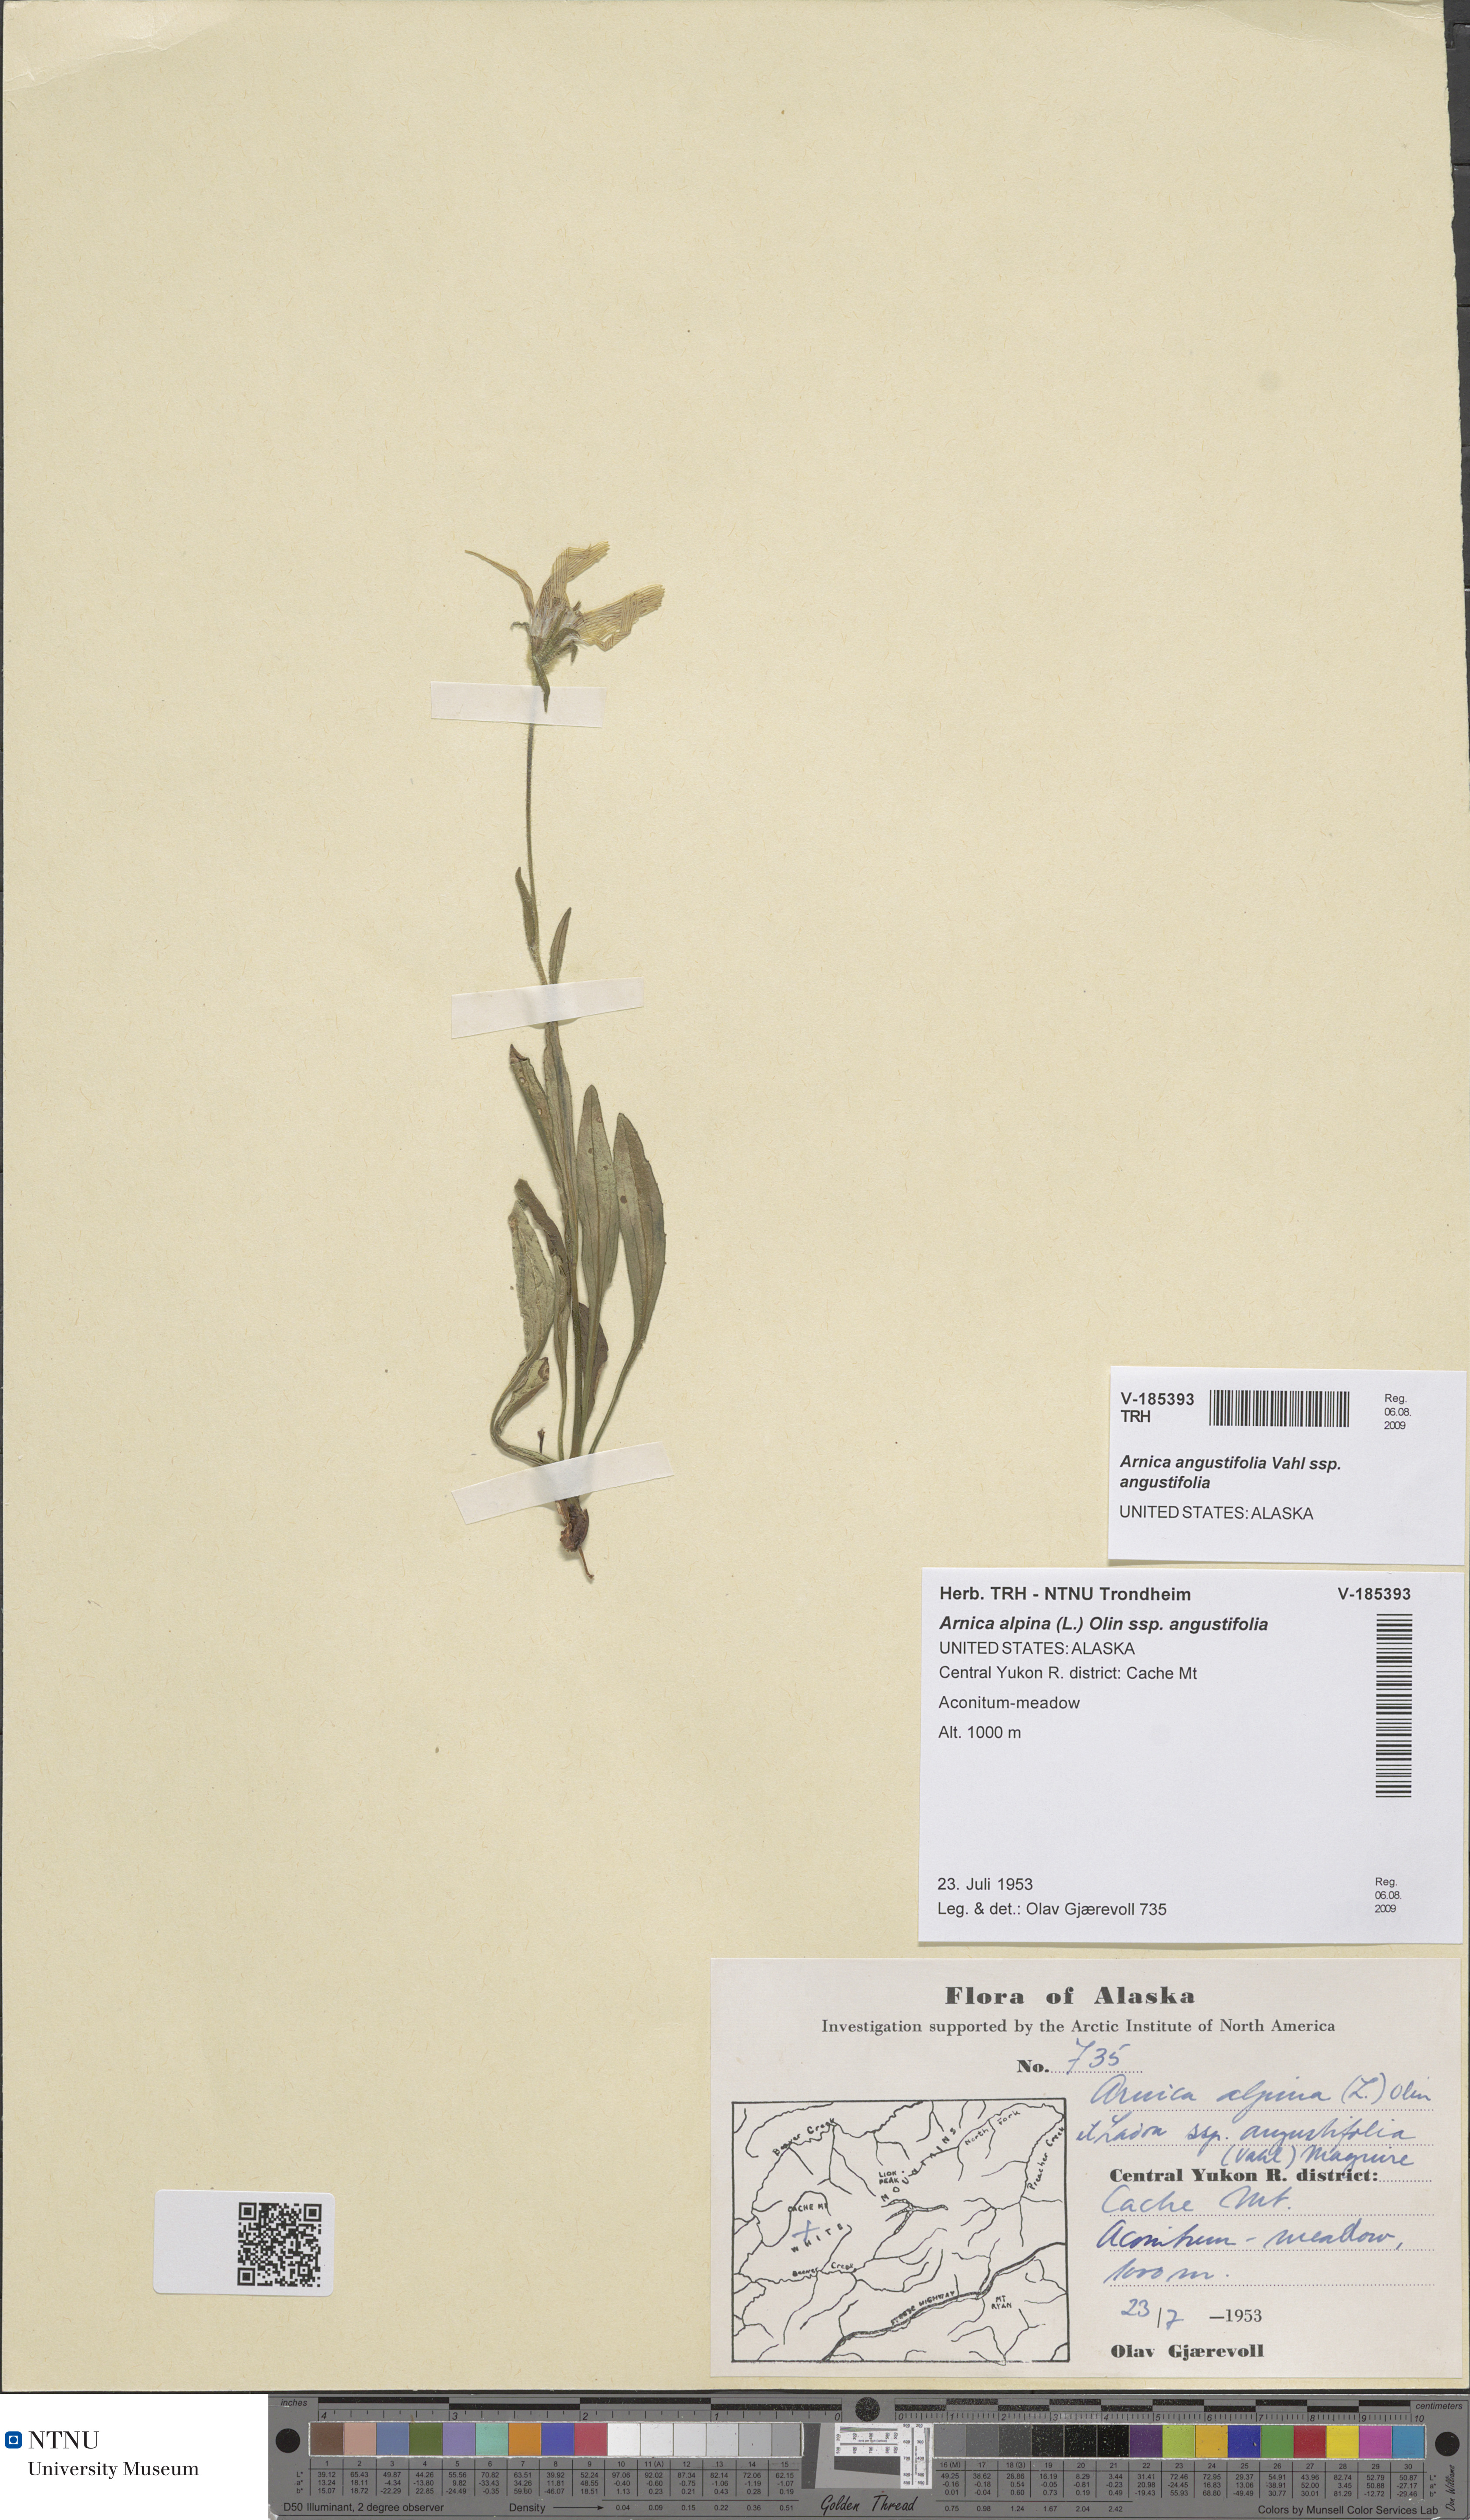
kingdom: Plantae
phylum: Tracheophyta
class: Magnoliopsida
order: Asterales
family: Asteraceae
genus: Arnica
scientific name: Arnica angustifolia
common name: Arctic arnica
